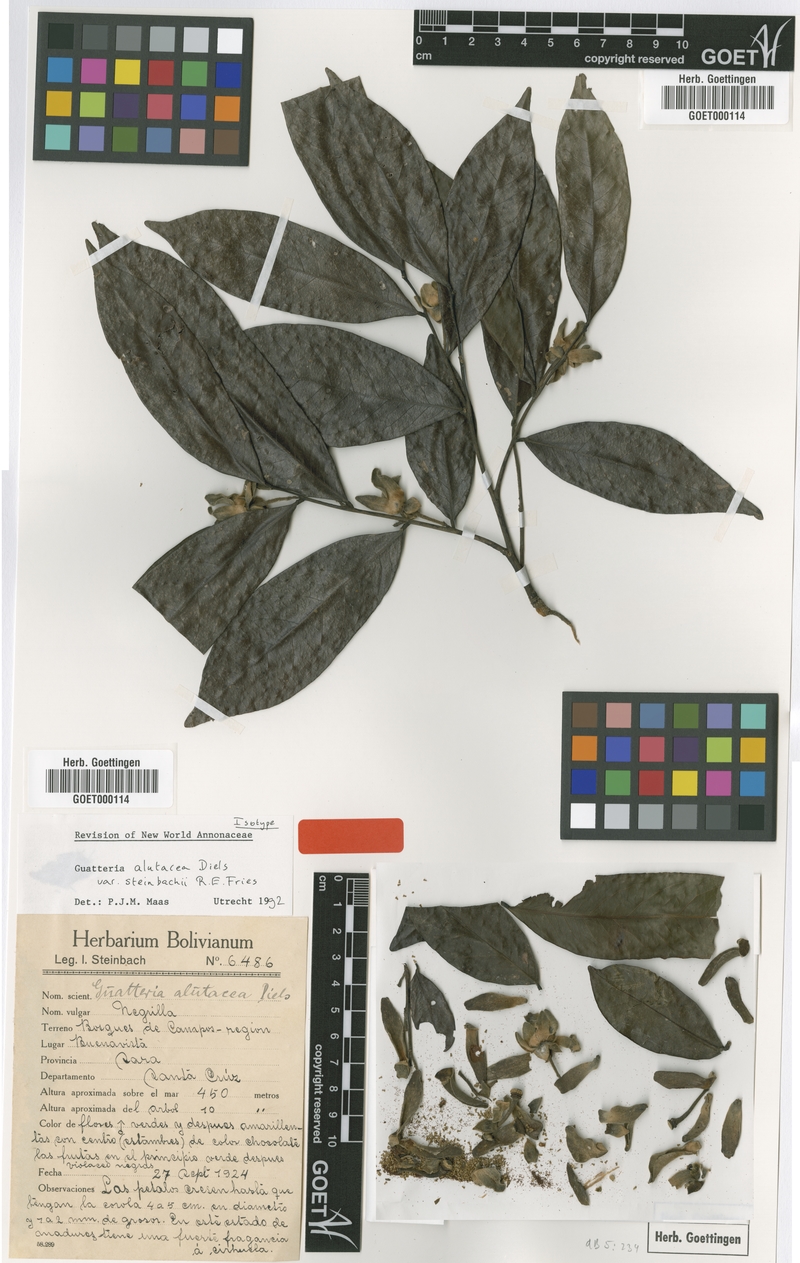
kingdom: Plantae
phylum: Tracheophyta
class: Magnoliopsida
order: Magnoliales
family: Annonaceae
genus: Guatteria
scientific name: Guatteria alutacea
